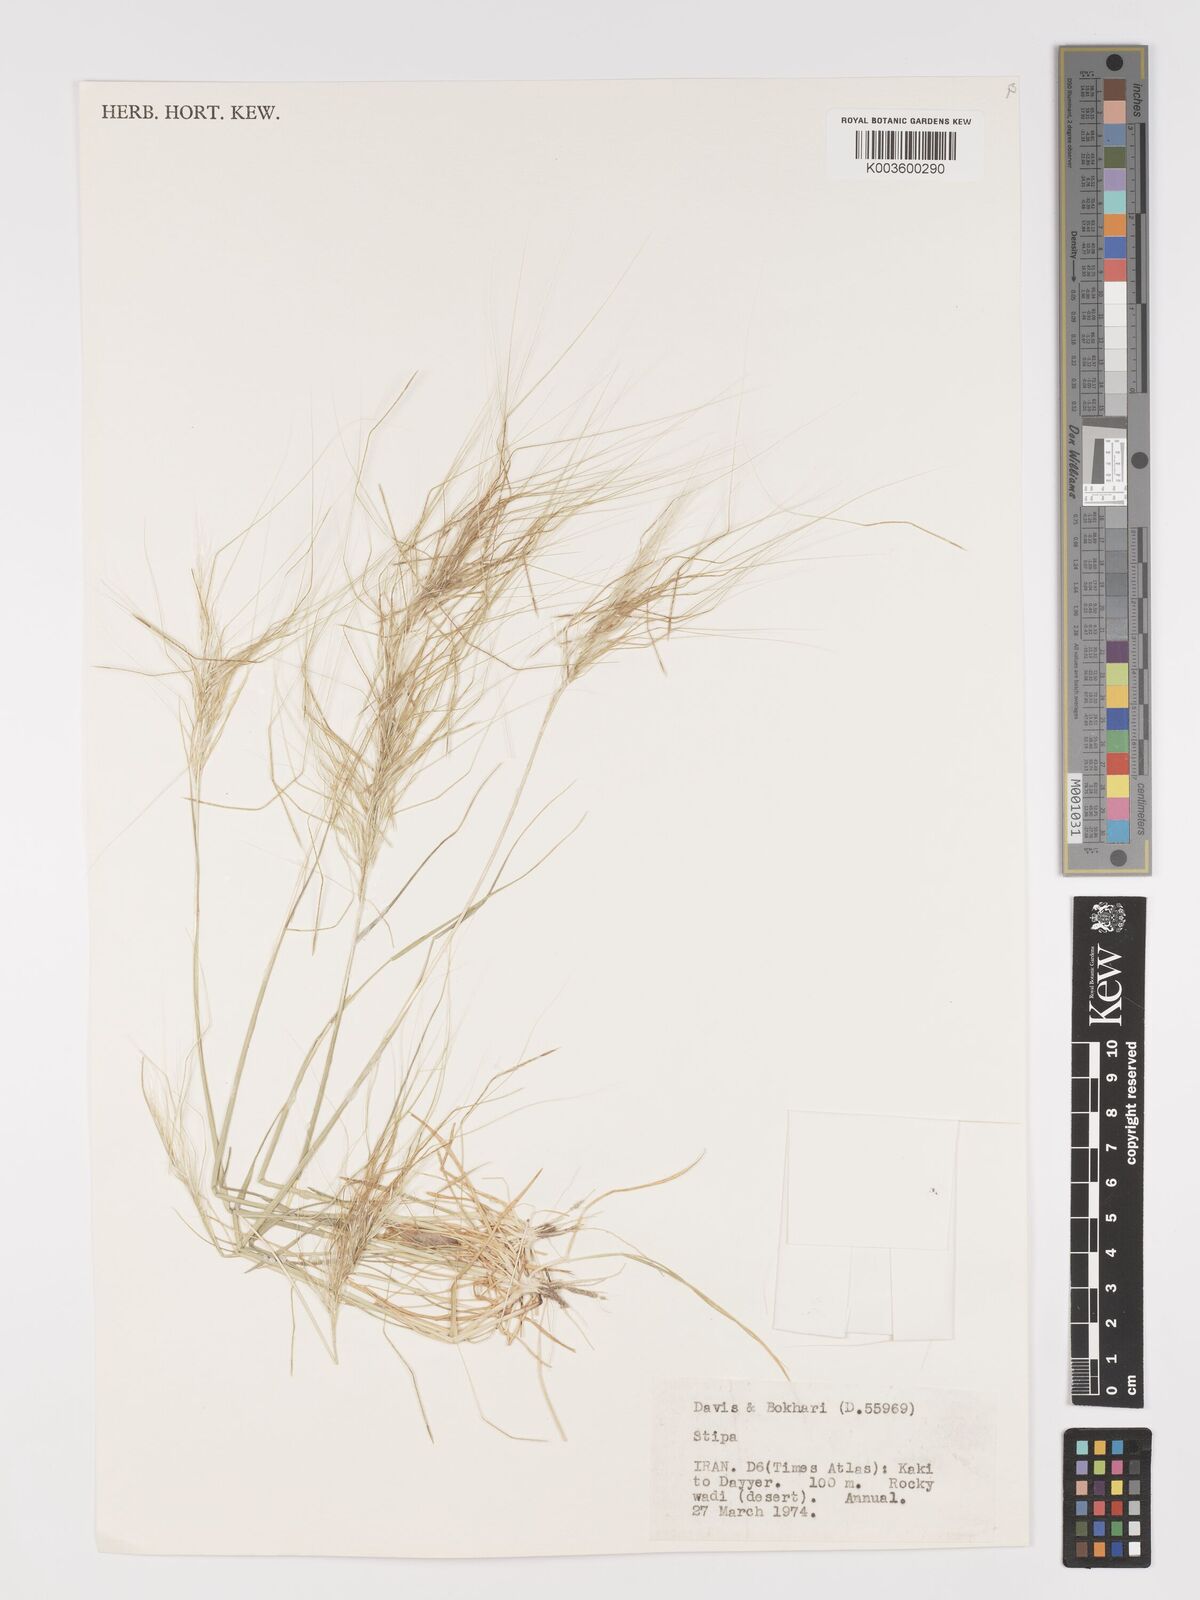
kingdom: Plantae
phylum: Tracheophyta
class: Liliopsida
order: Poales
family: Poaceae
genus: Stipellula
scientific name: Stipellula capensis
